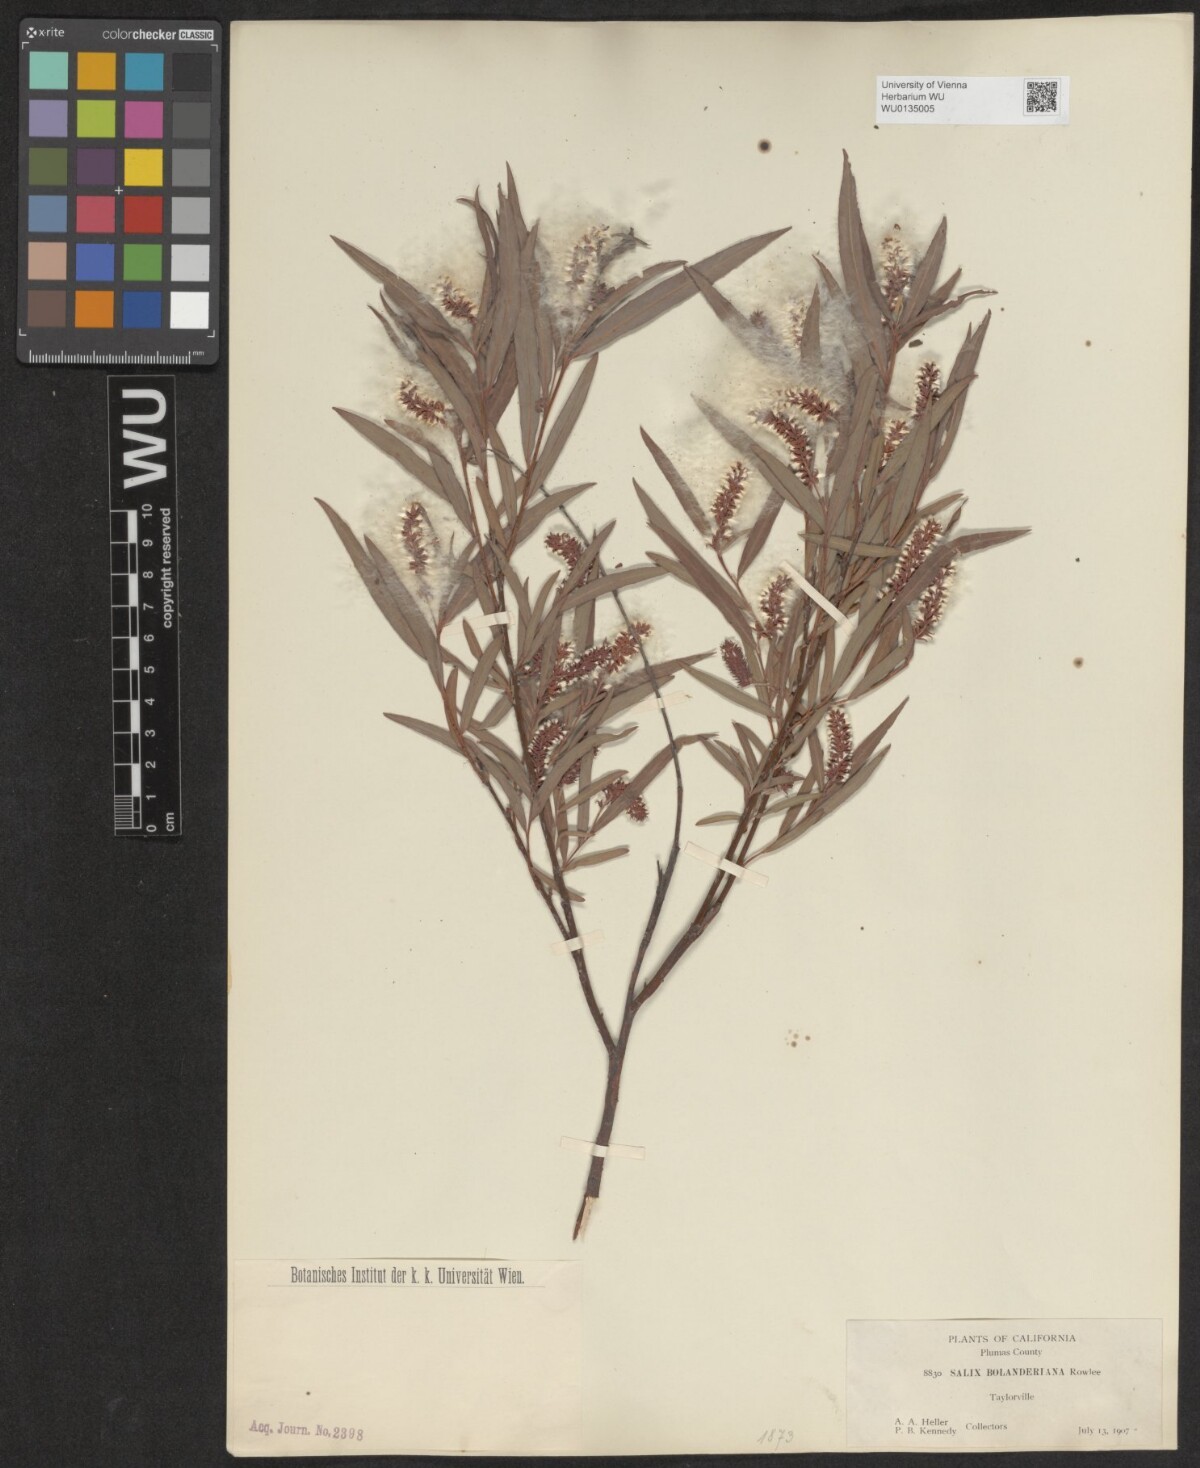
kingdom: Plantae
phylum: Tracheophyta
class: Magnoliopsida
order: Malpighiales
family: Salicaceae
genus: Salix
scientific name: Salix melanopsis
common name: Dusky willow
